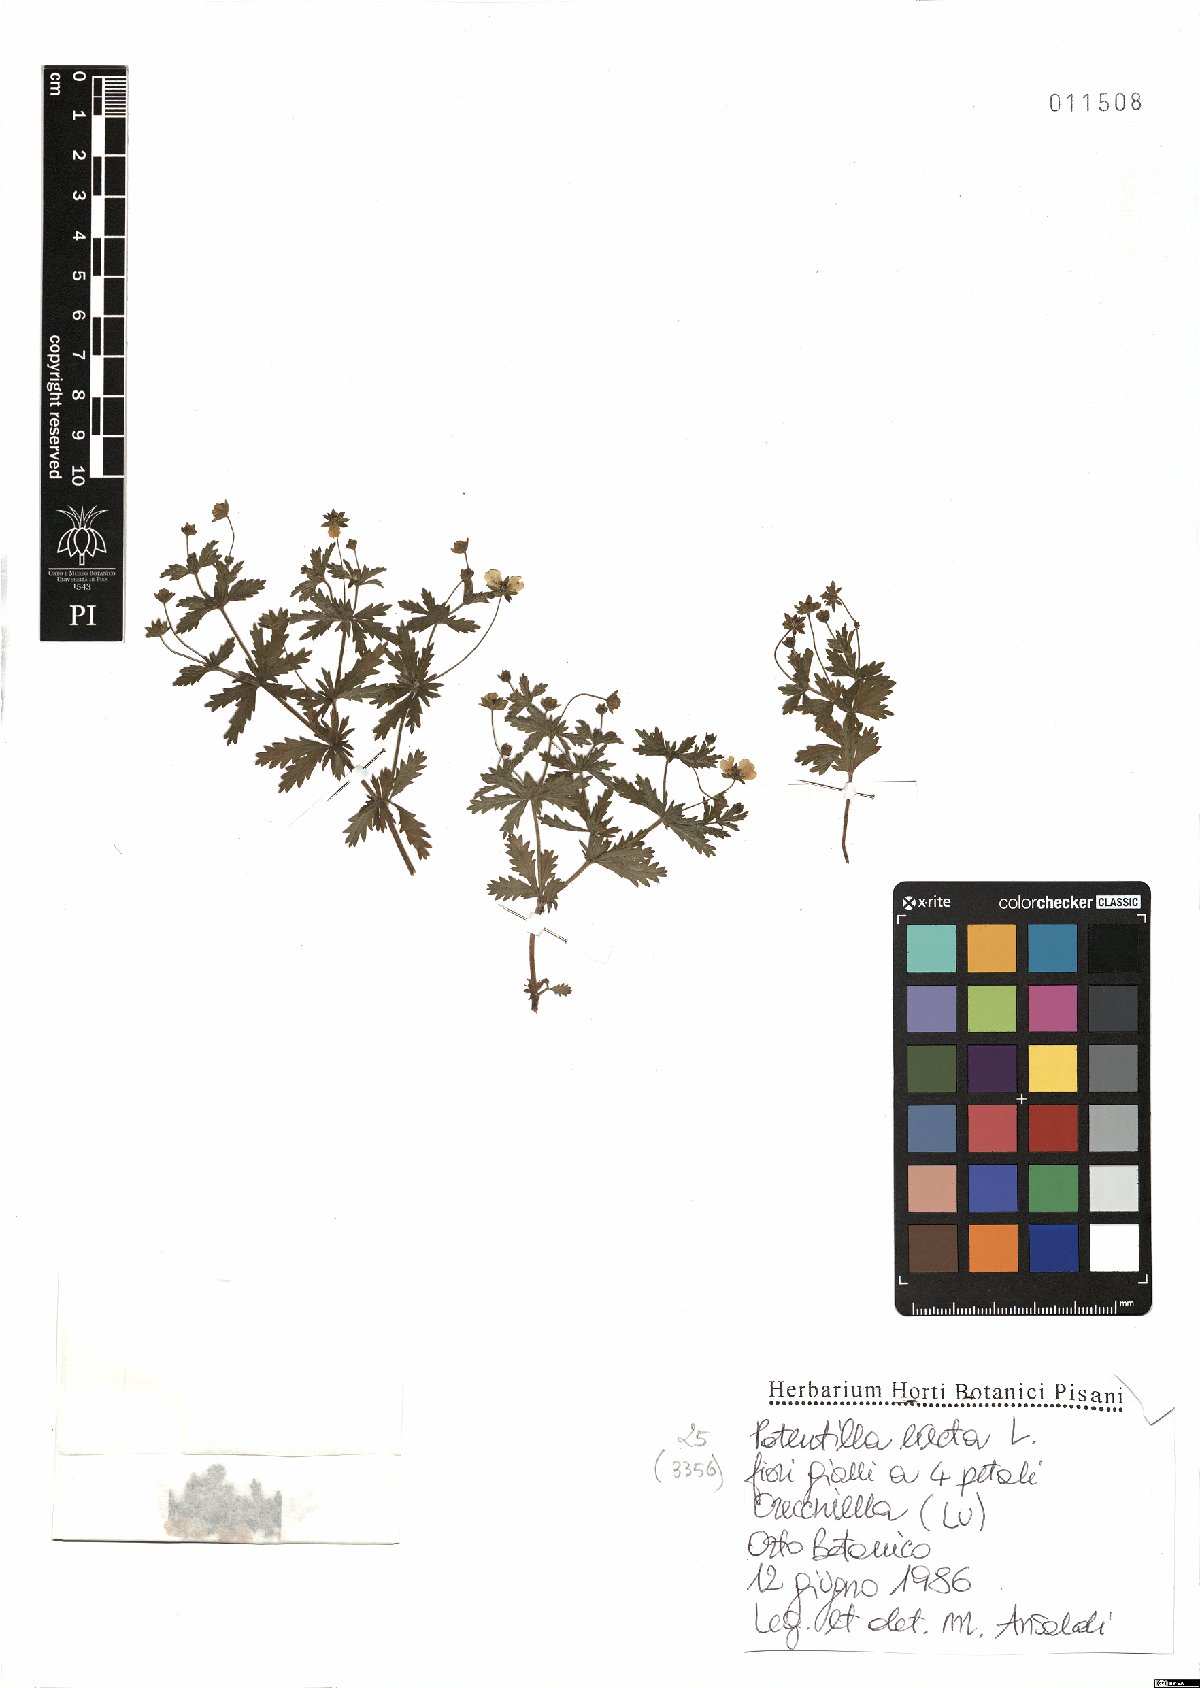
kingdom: Plantae
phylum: Tracheophyta
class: Magnoliopsida
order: Rosales
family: Rosaceae
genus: Potentilla
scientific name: Potentilla erecta
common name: Tormentil
